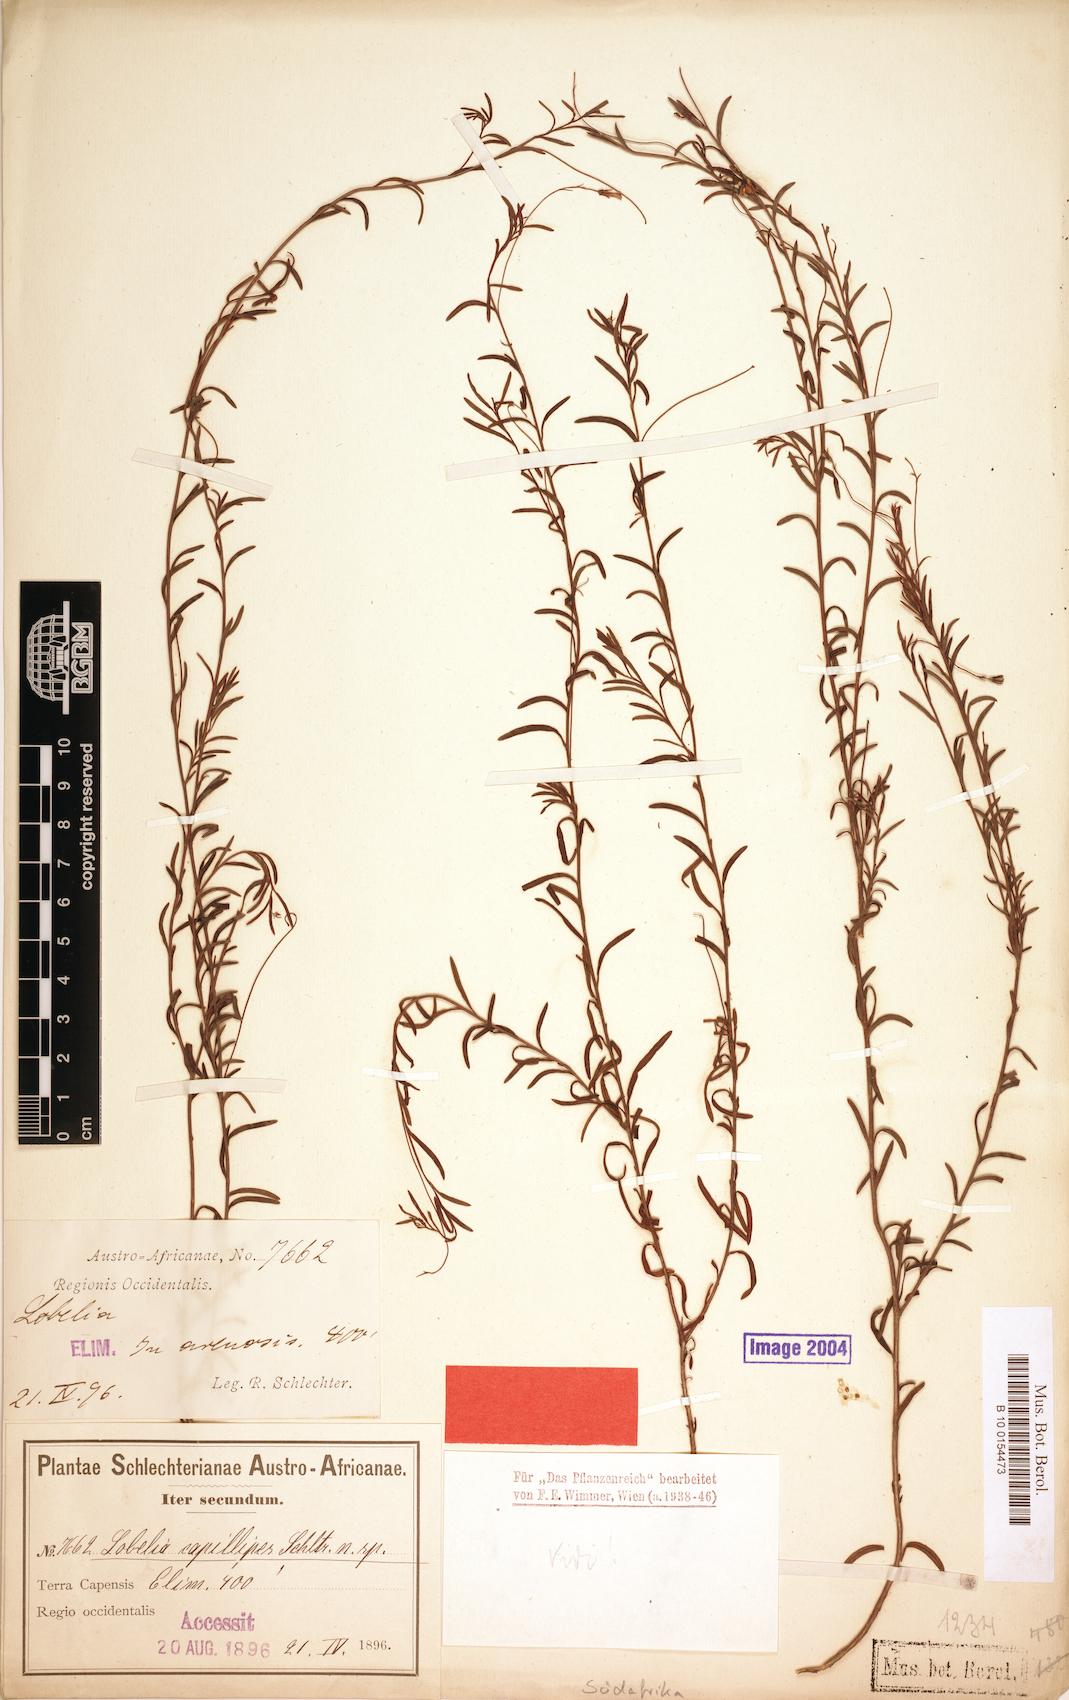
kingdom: Plantae
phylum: Tracheophyta
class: Magnoliopsida
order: Asterales
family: Campanulaceae
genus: Lobelia
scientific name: Lobelia pinifolia
